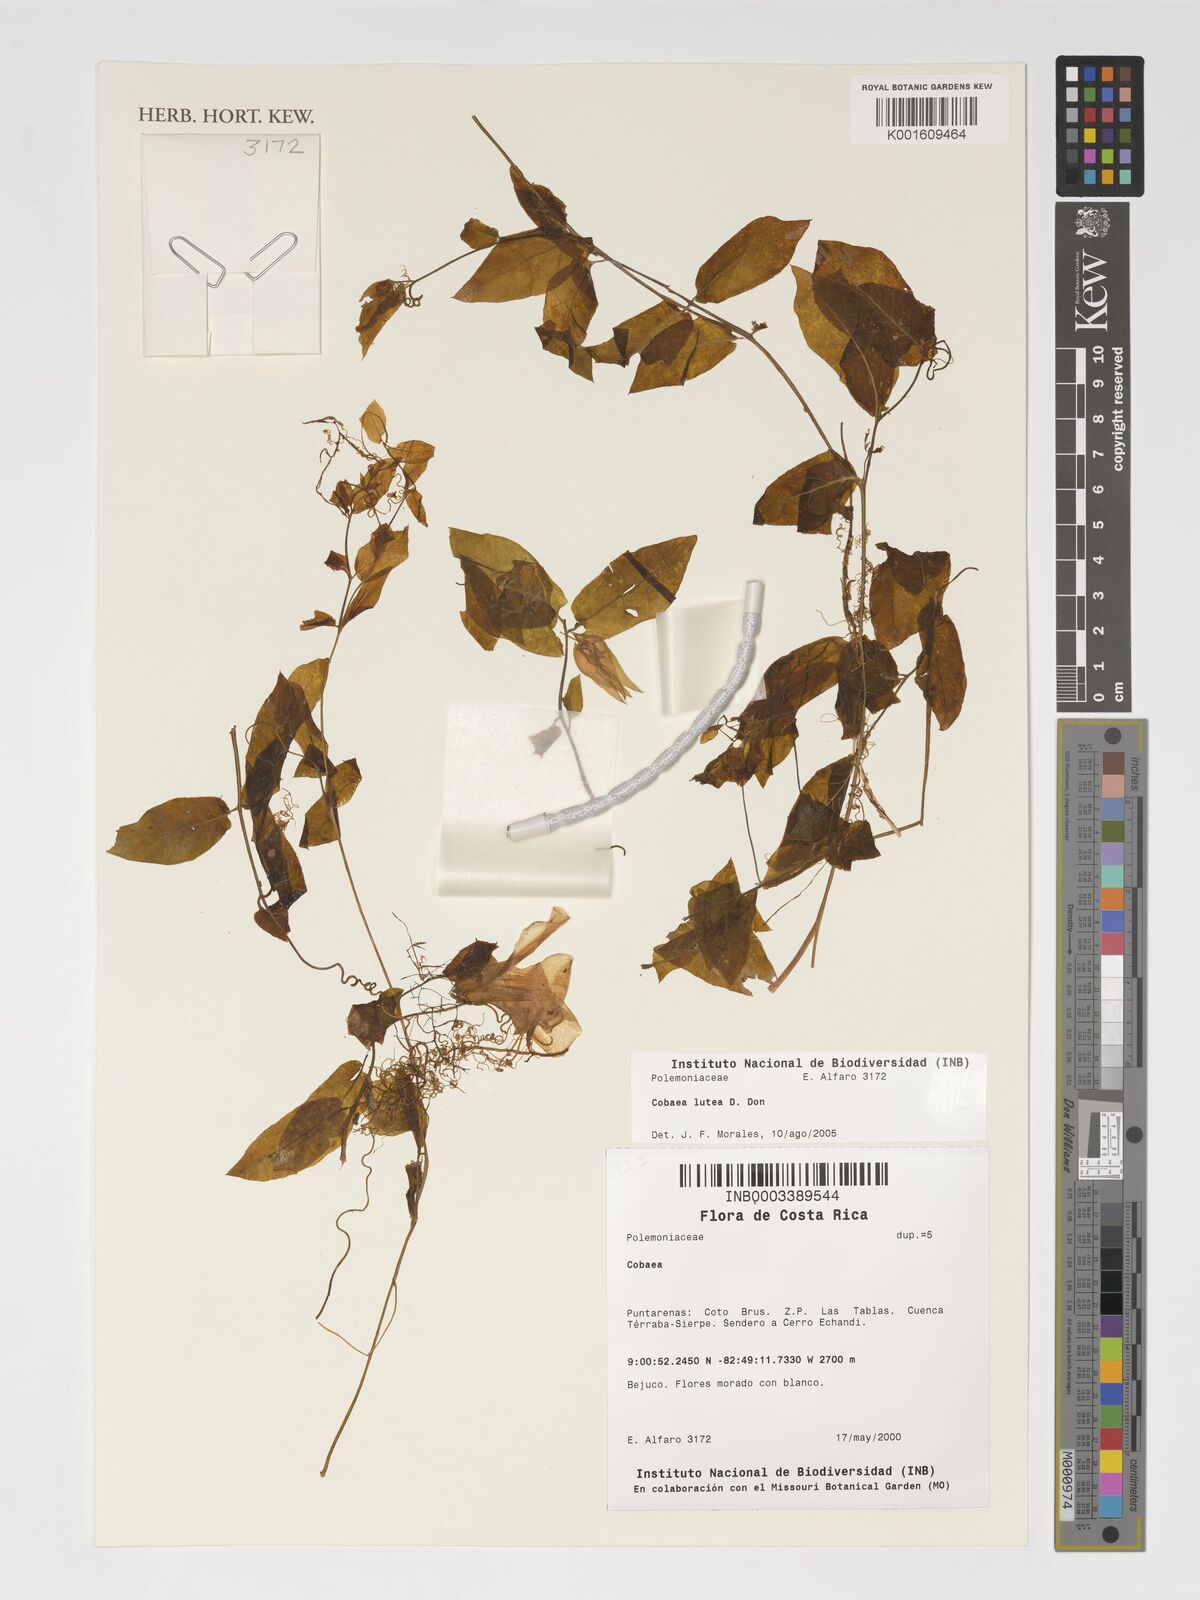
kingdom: Plantae
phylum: Tracheophyta
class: Magnoliopsida
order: Ericales
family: Polemoniaceae
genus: Cobaea
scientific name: Cobaea lutea
